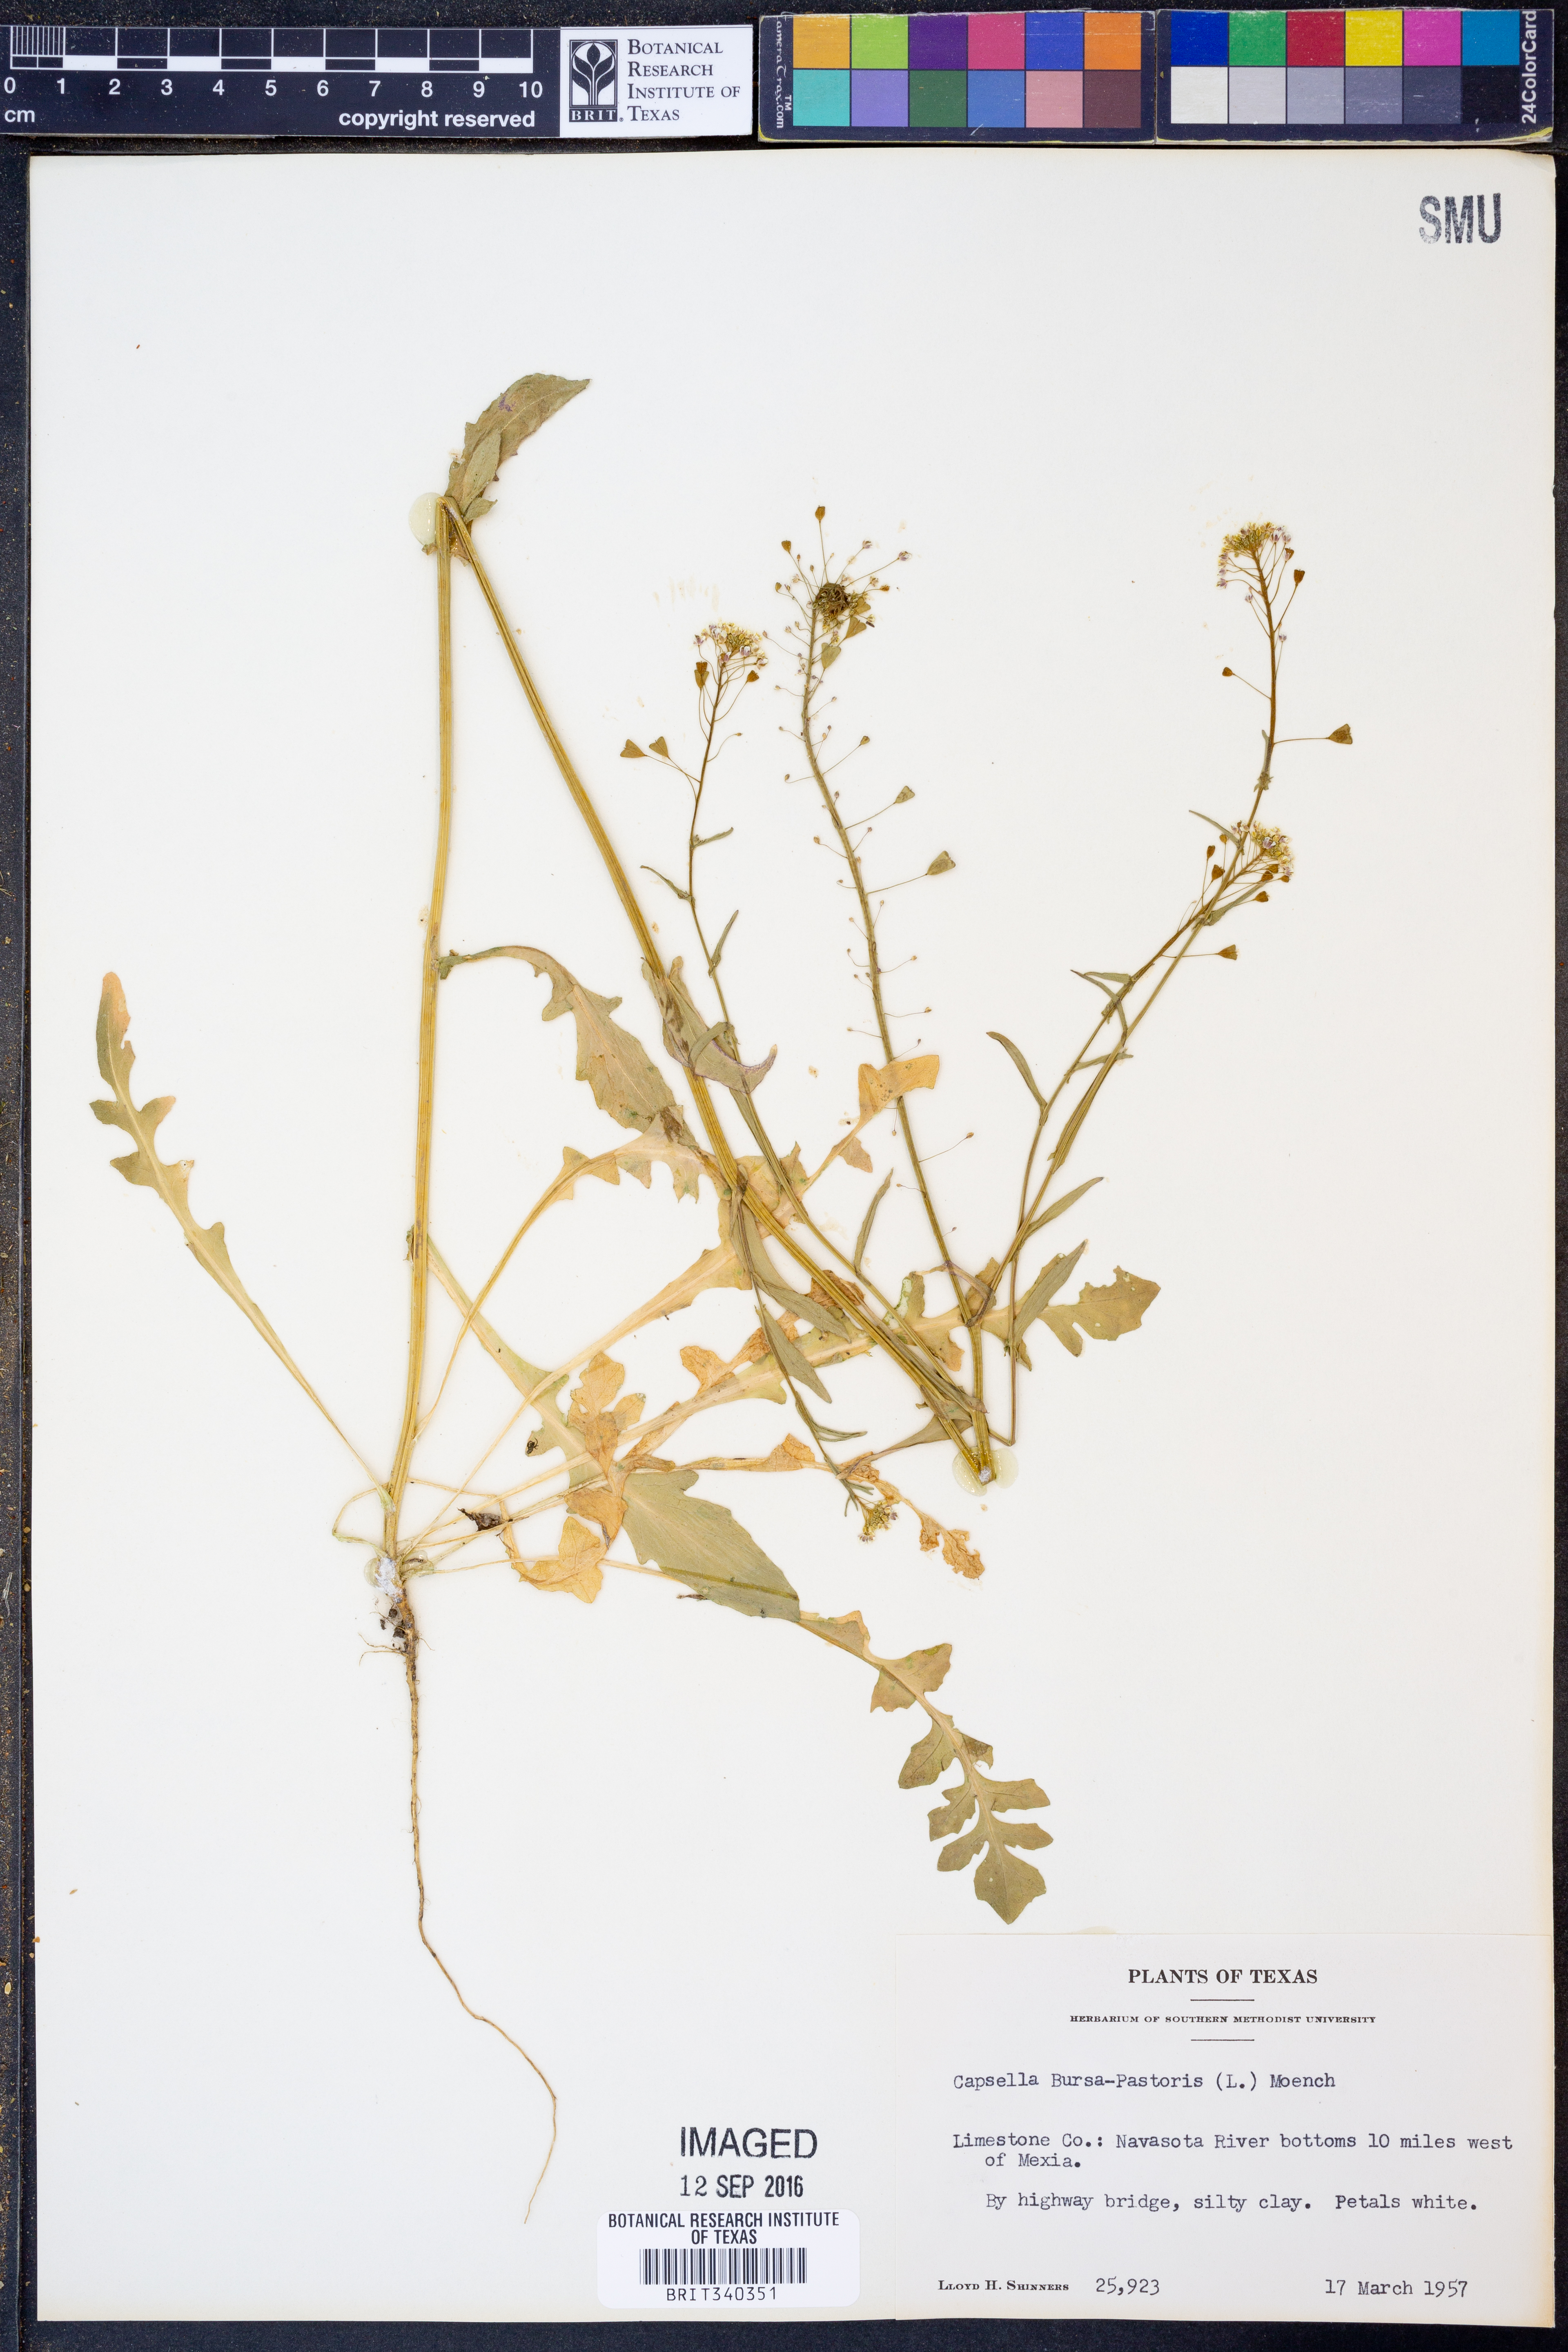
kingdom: Plantae
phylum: Tracheophyta
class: Magnoliopsida
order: Brassicales
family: Brassicaceae
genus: Capsella
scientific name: Capsella bursa-pastoris
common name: Shepherd's purse
